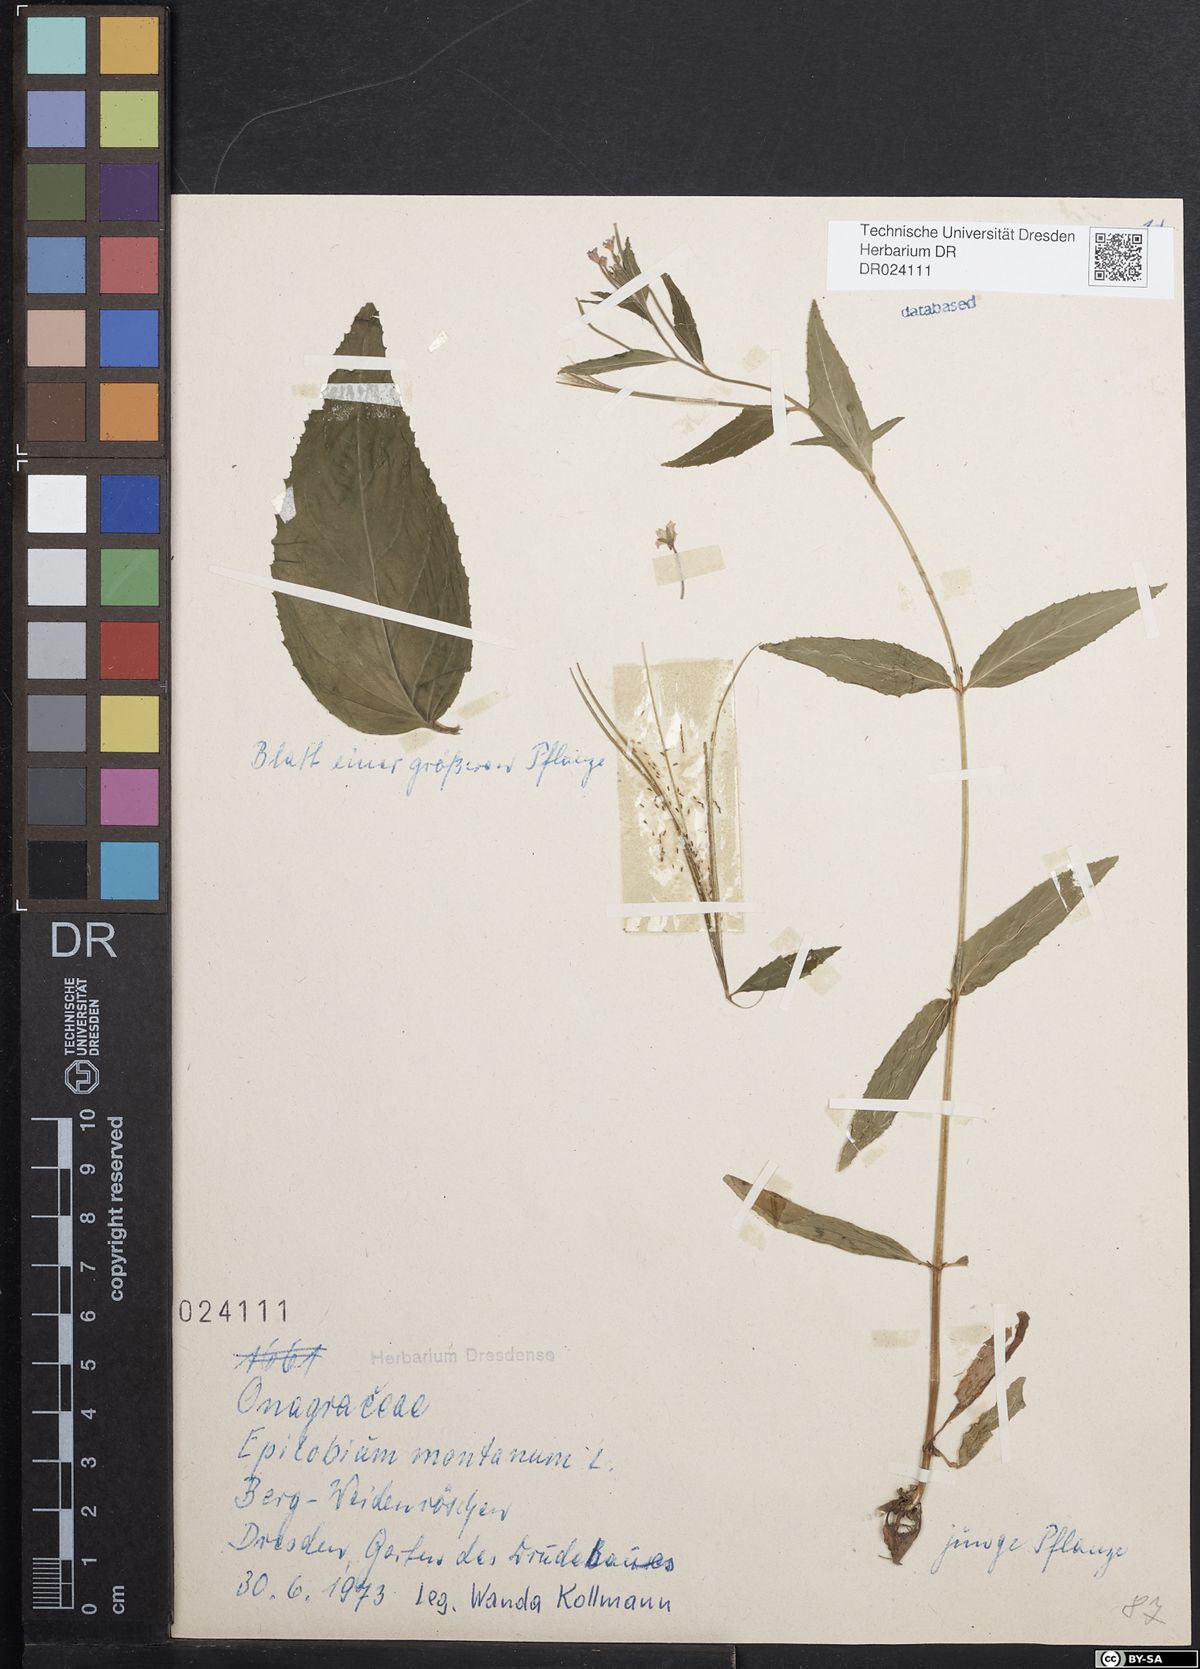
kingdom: Plantae
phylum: Tracheophyta
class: Magnoliopsida
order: Myrtales
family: Onagraceae
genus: Epilobium
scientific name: Epilobium montanum
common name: Broad-leaved willowherb
